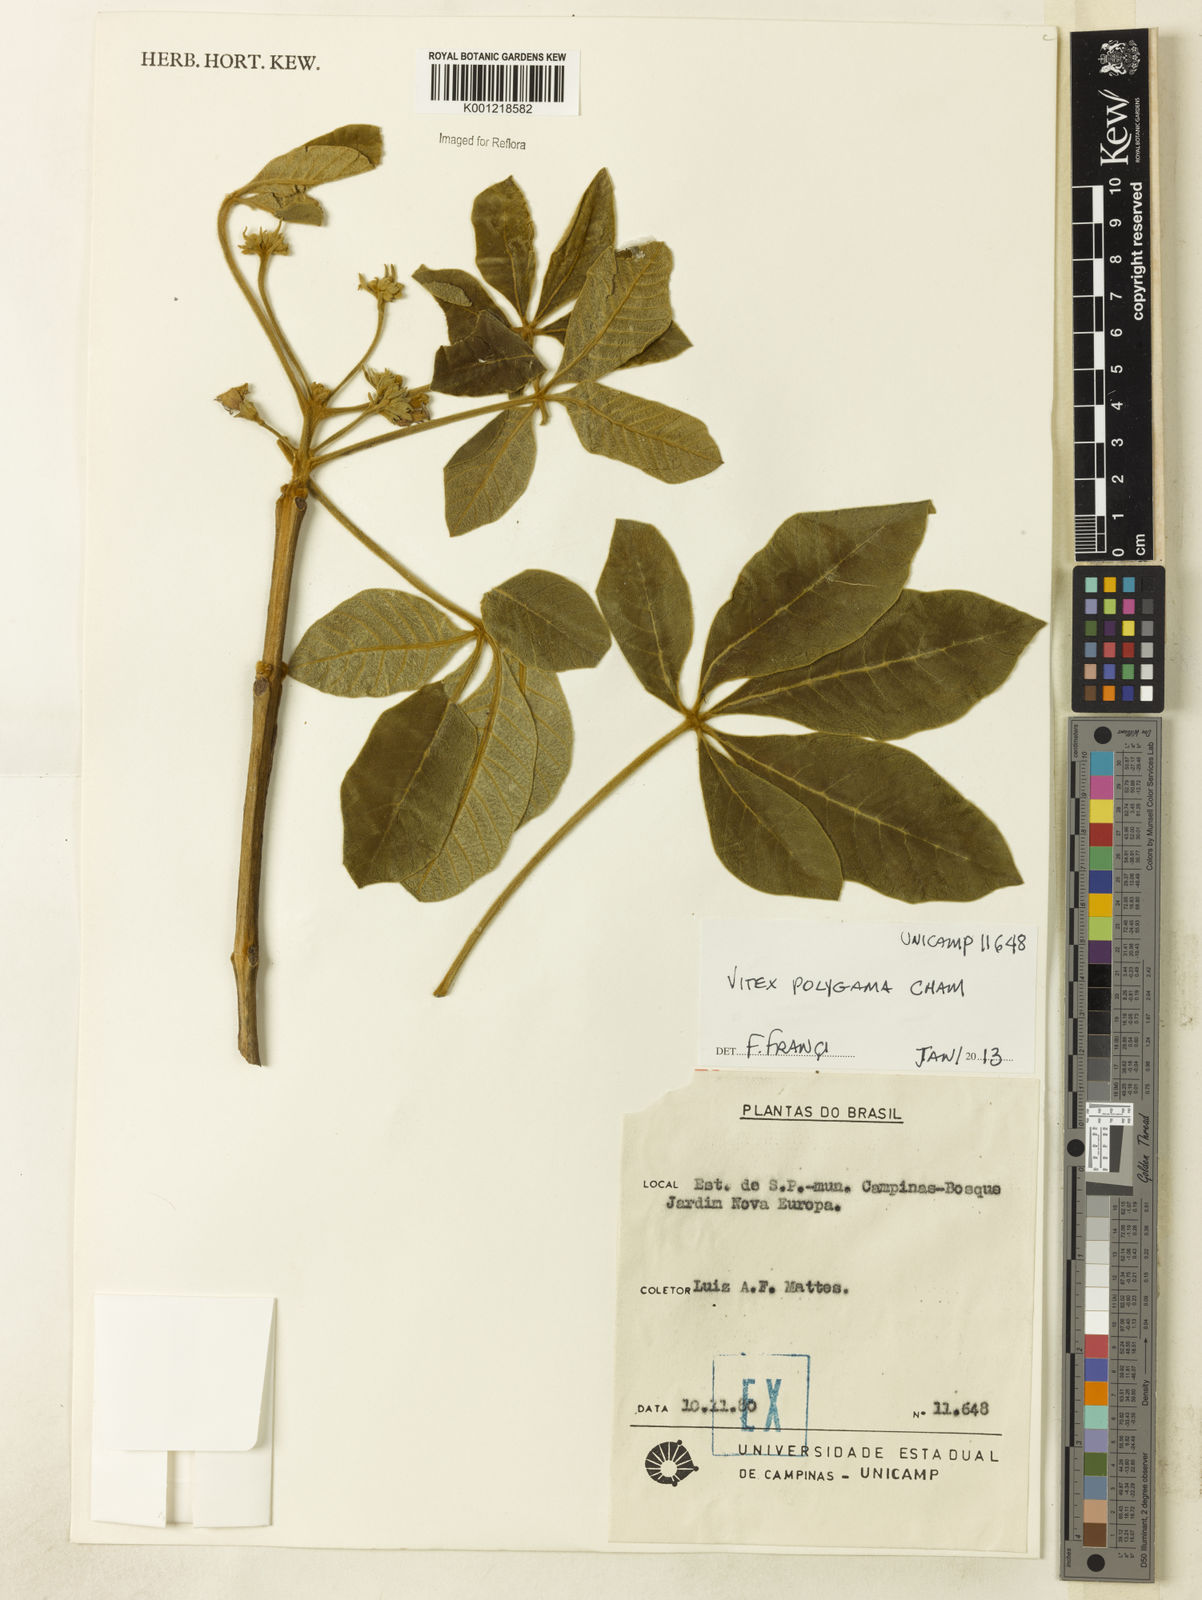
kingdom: Plantae
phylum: Tracheophyta
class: Magnoliopsida
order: Lamiales
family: Lamiaceae
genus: Vitex
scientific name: Vitex polygama
